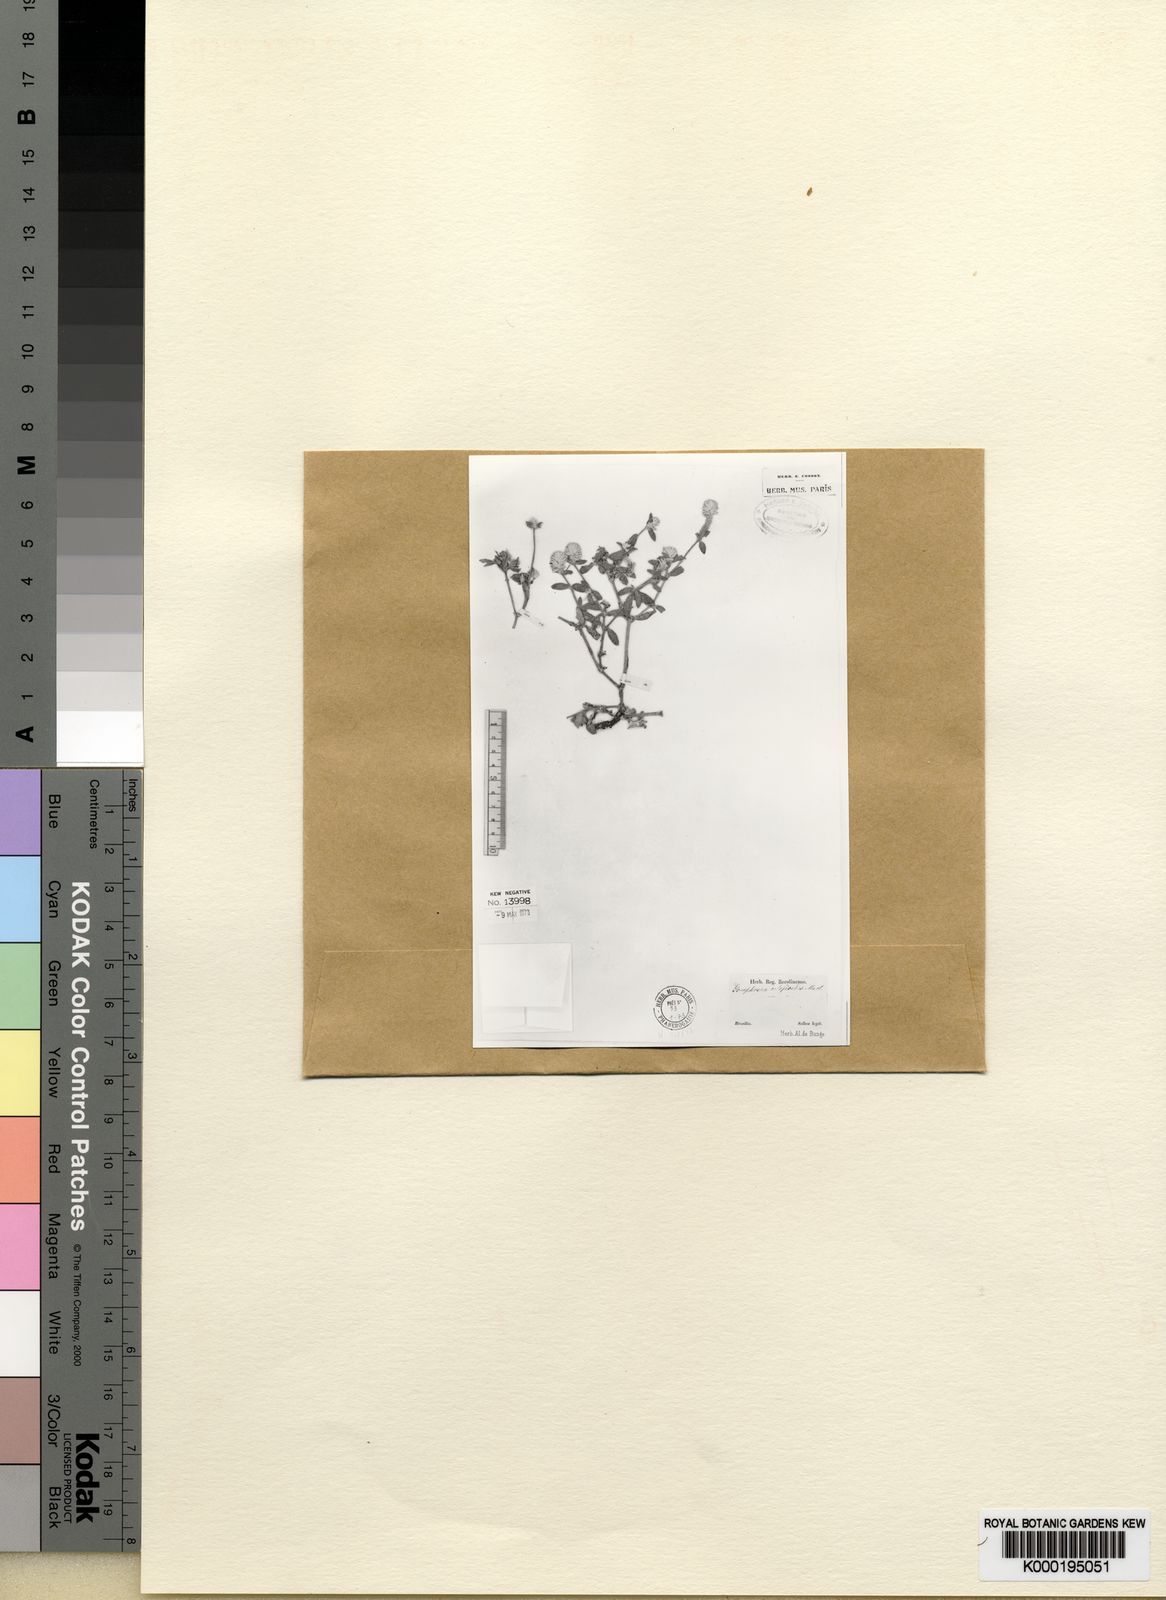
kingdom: Plantae
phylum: Tracheophyta
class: Magnoliopsida
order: Caryophyllales
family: Amaranthaceae
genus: Gomphrena
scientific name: Gomphrena celosioides
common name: Gomphrena-weed
